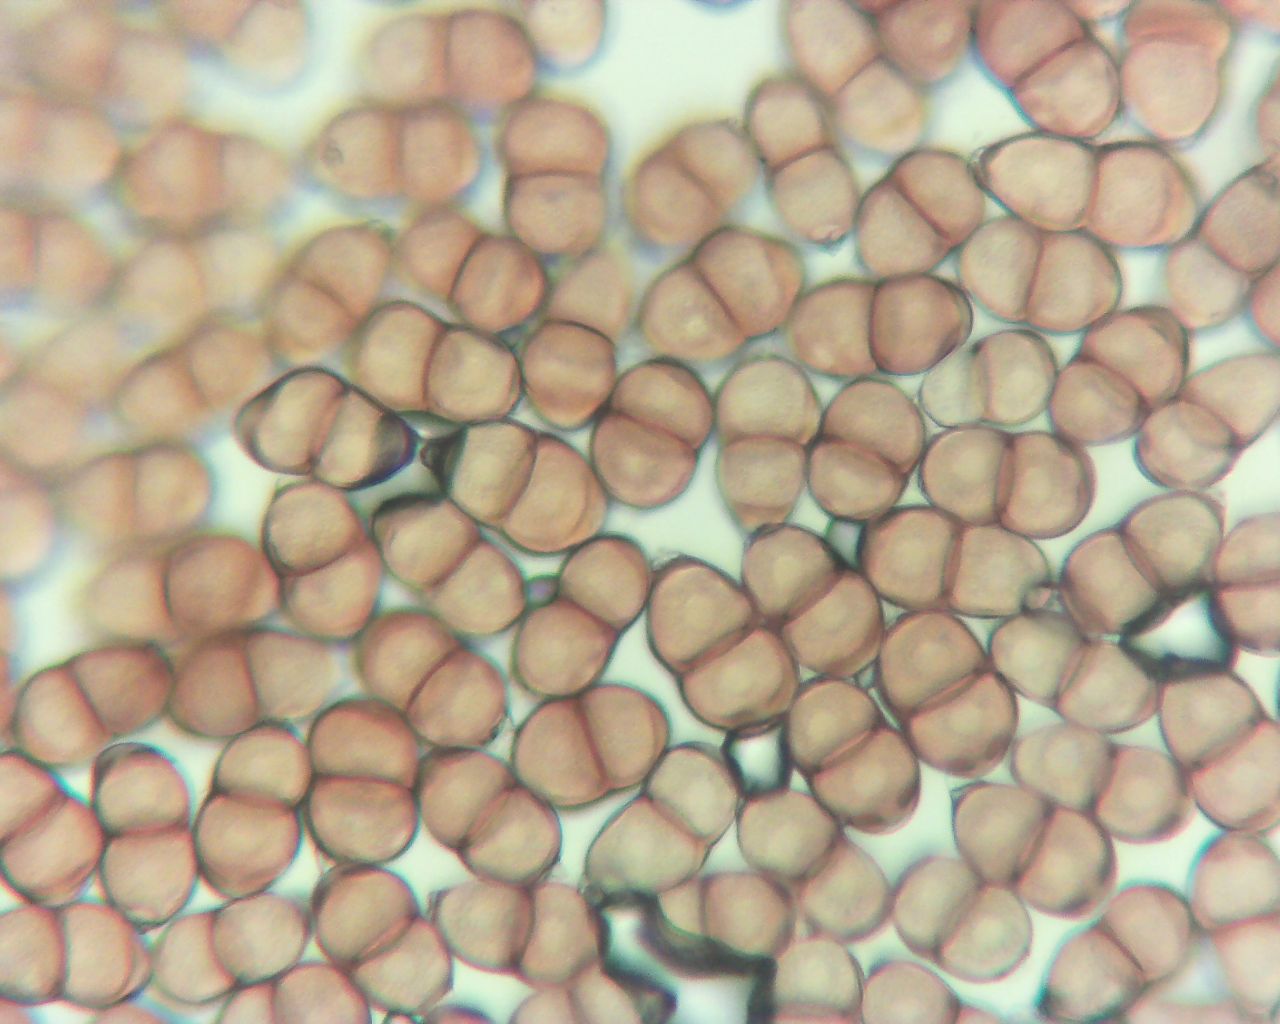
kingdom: Fungi
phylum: Basidiomycota
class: Pucciniomycetes
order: Pucciniales
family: Pucciniaceae
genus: Puccinia
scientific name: Puccinia pulverulenta
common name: dueurt-tvecellerust
